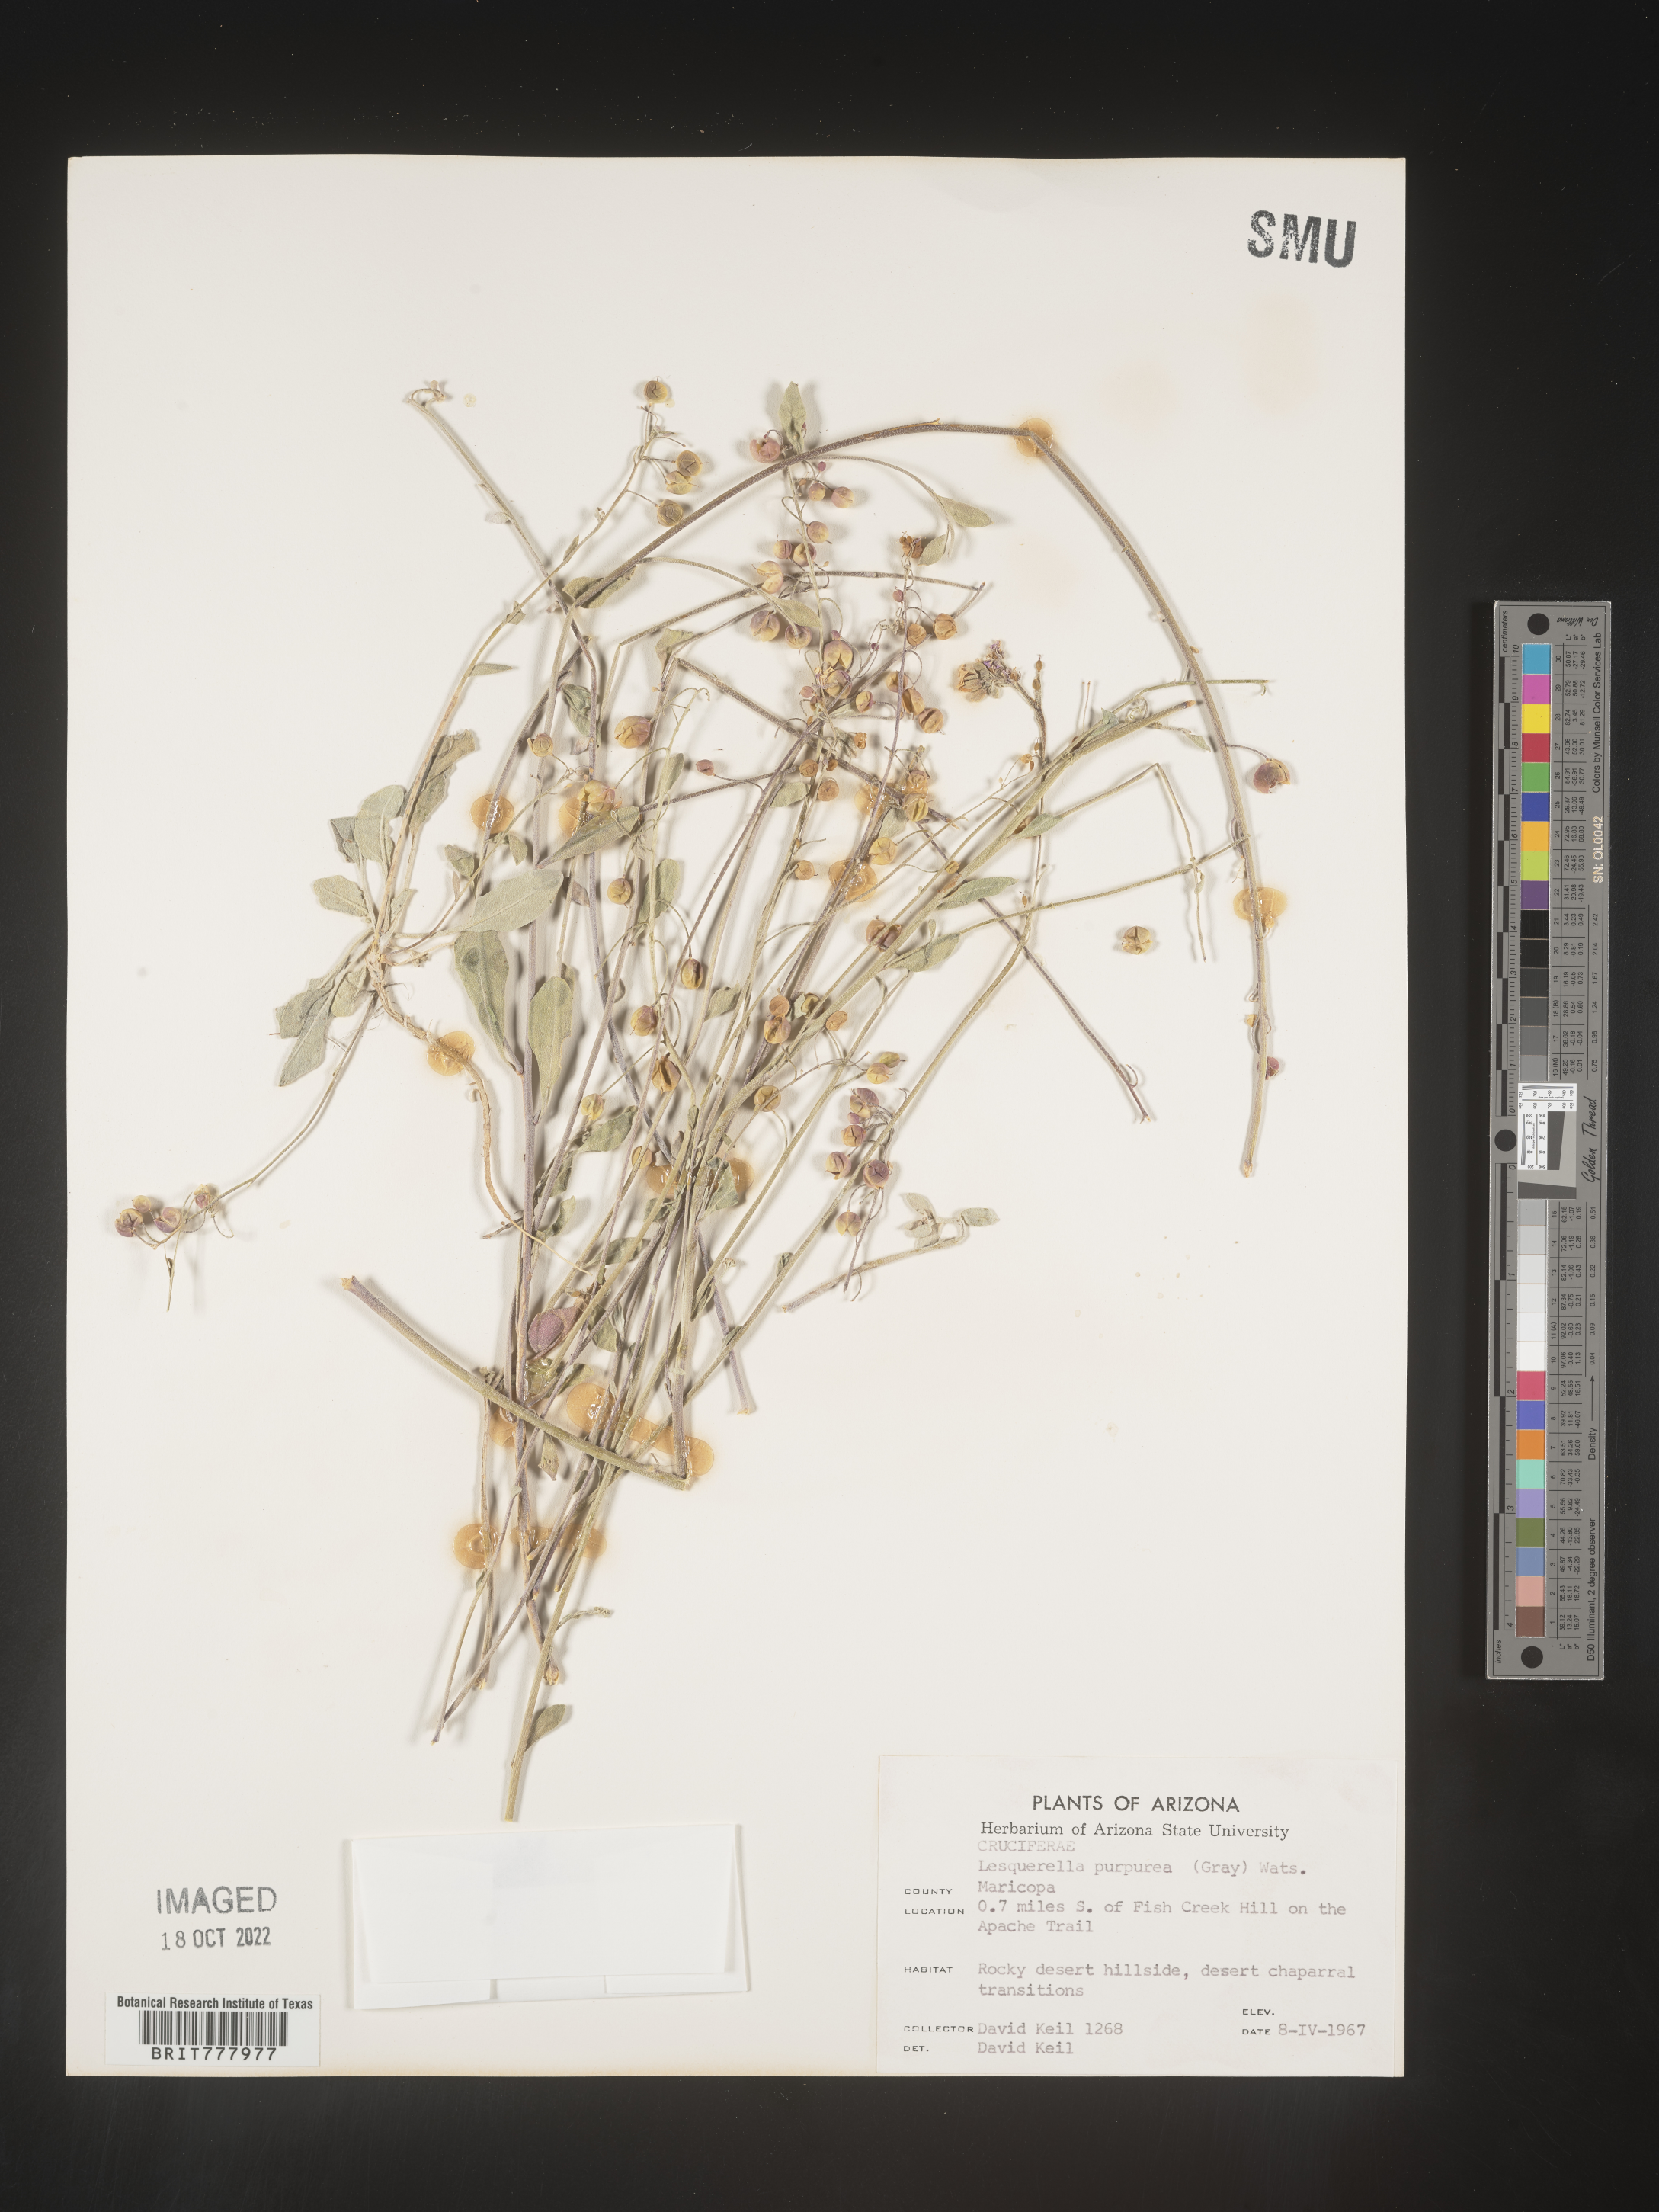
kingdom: Chromista
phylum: Cercozoa
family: Psammonobiotidae
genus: Lesquerella
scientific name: Lesquerella
